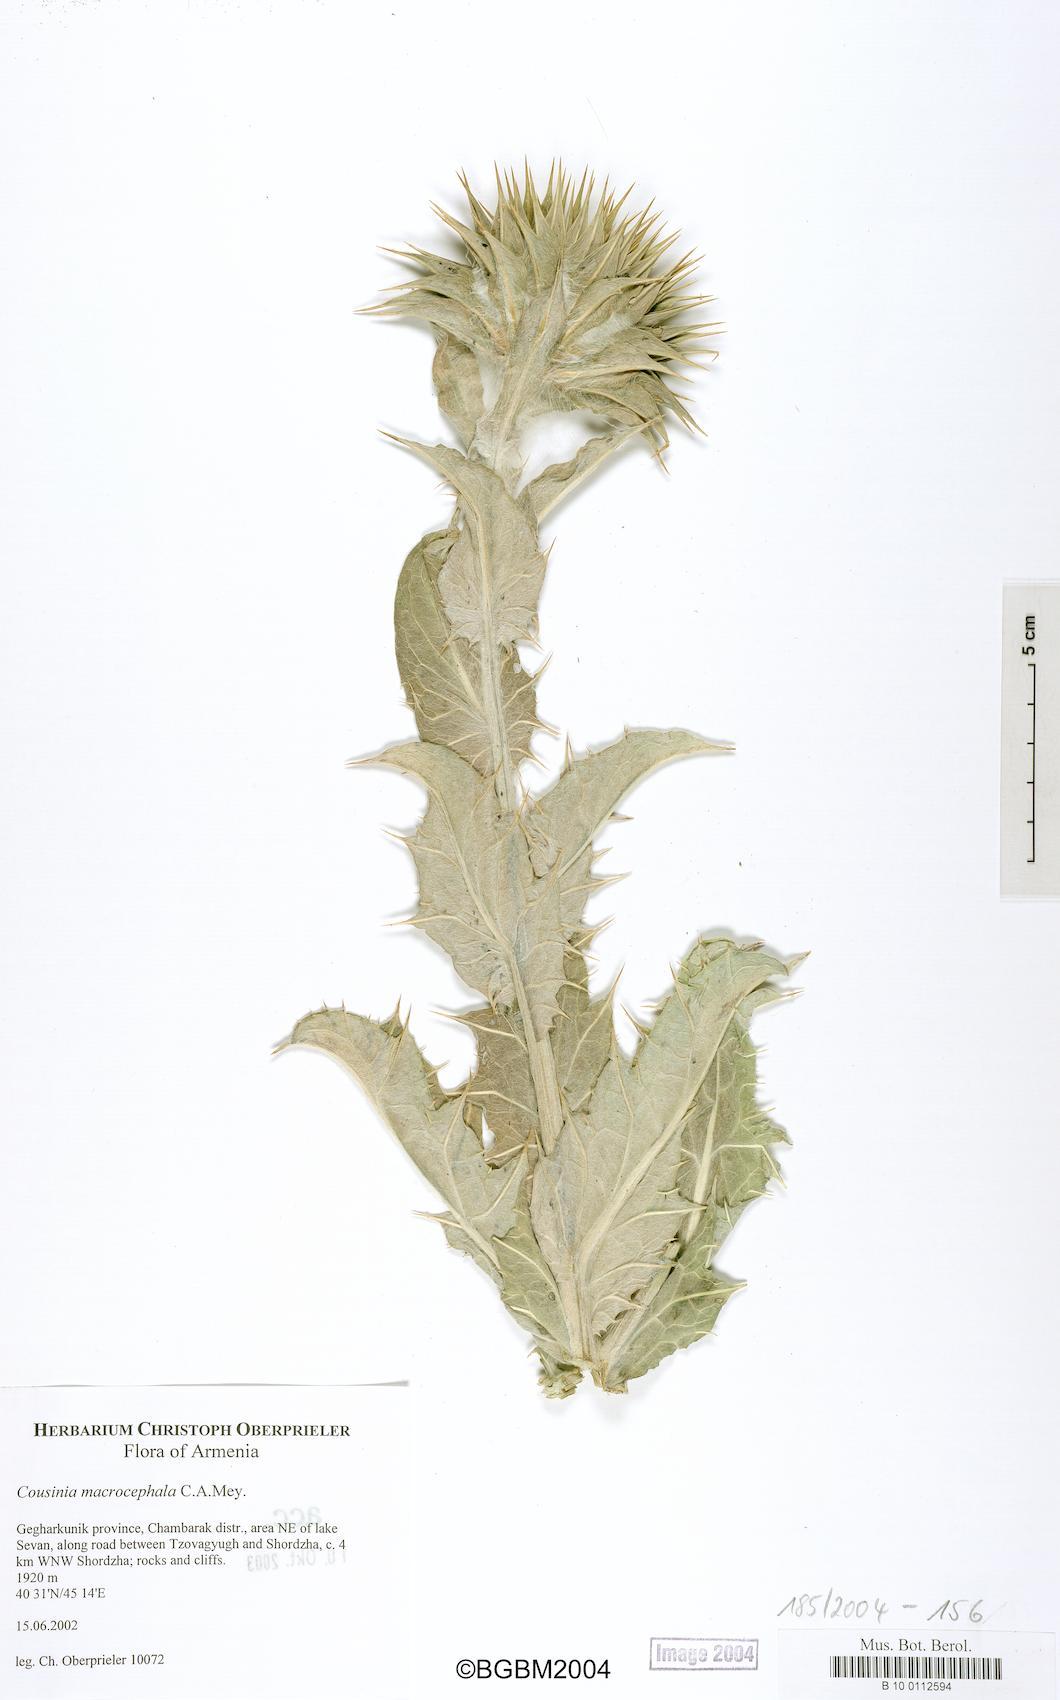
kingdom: Plantae
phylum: Tracheophyta
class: Magnoliopsida
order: Asterales
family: Asteraceae
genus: Cousinia
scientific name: Cousinia macrocephala
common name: Macrocephalous cousinia
